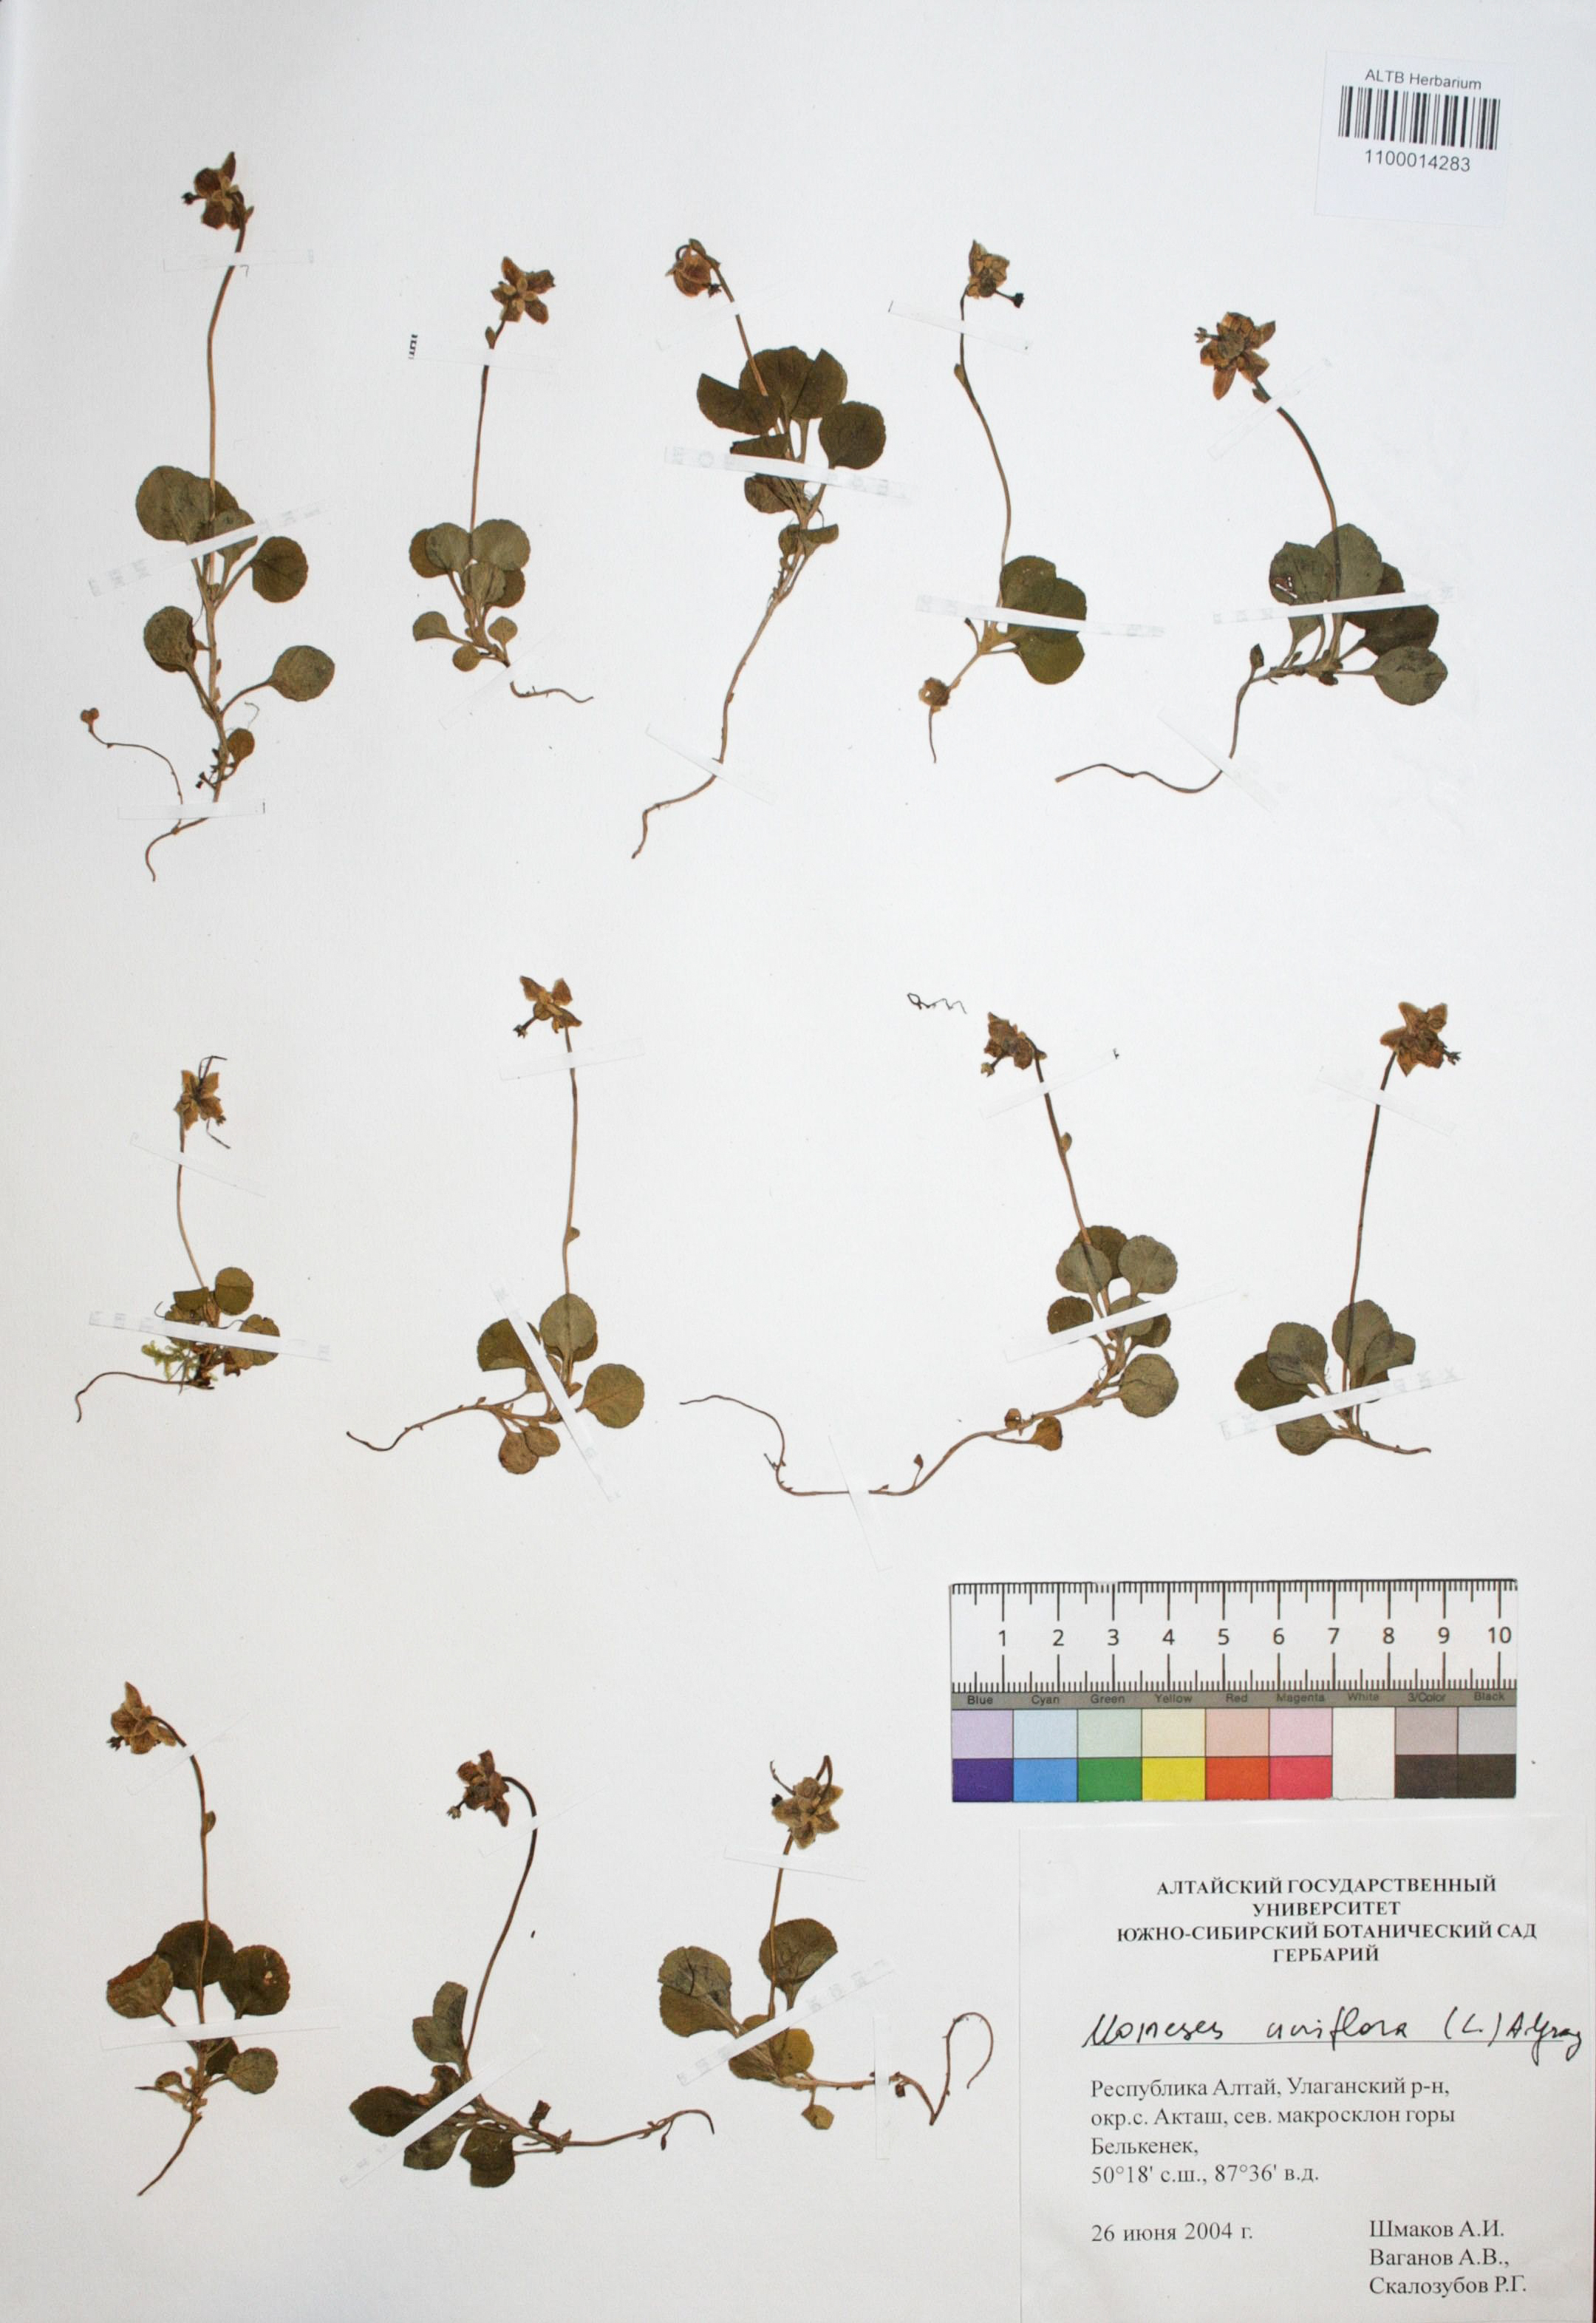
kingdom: Plantae
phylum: Tracheophyta
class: Magnoliopsida
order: Ericales
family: Ericaceae
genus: Moneses
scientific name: Moneses uniflora
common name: One-flowered wintergreen
